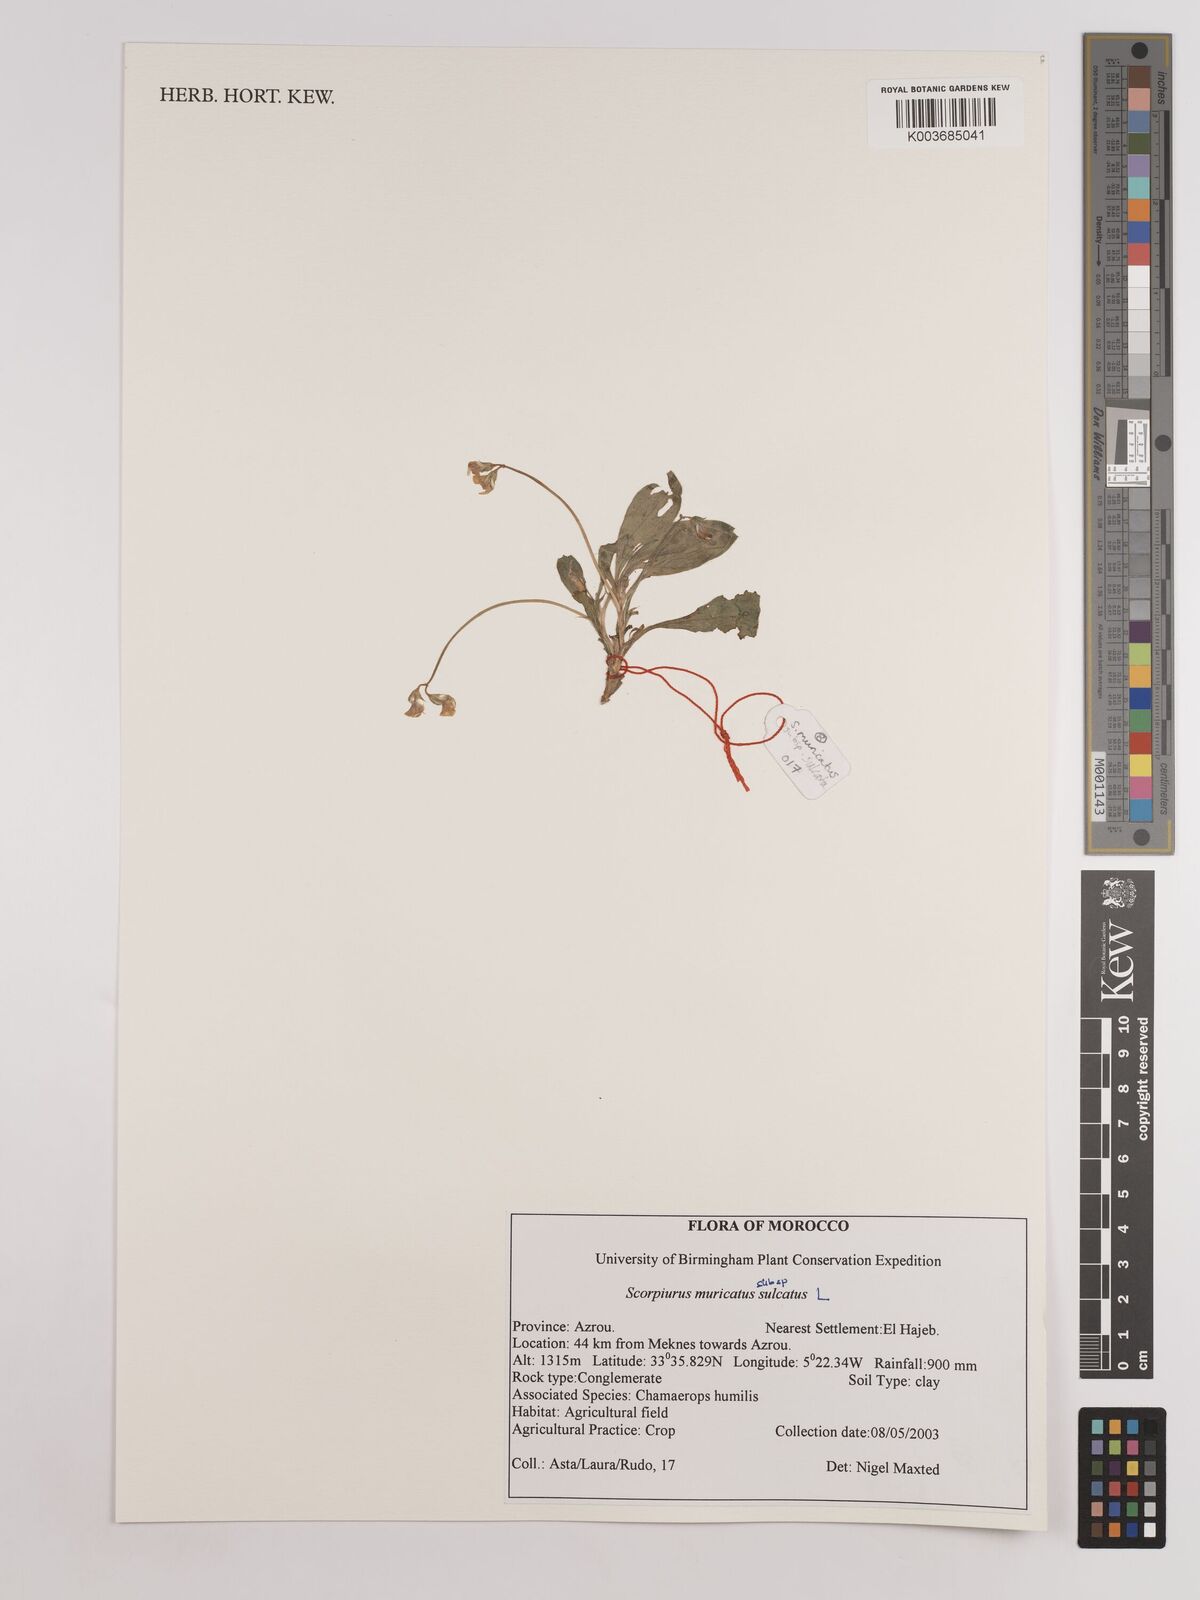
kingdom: Plantae
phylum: Tracheophyta
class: Magnoliopsida
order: Fabales
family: Fabaceae
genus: Scorpiurus
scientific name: Scorpiurus muricatus
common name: Caterpillar-plant
